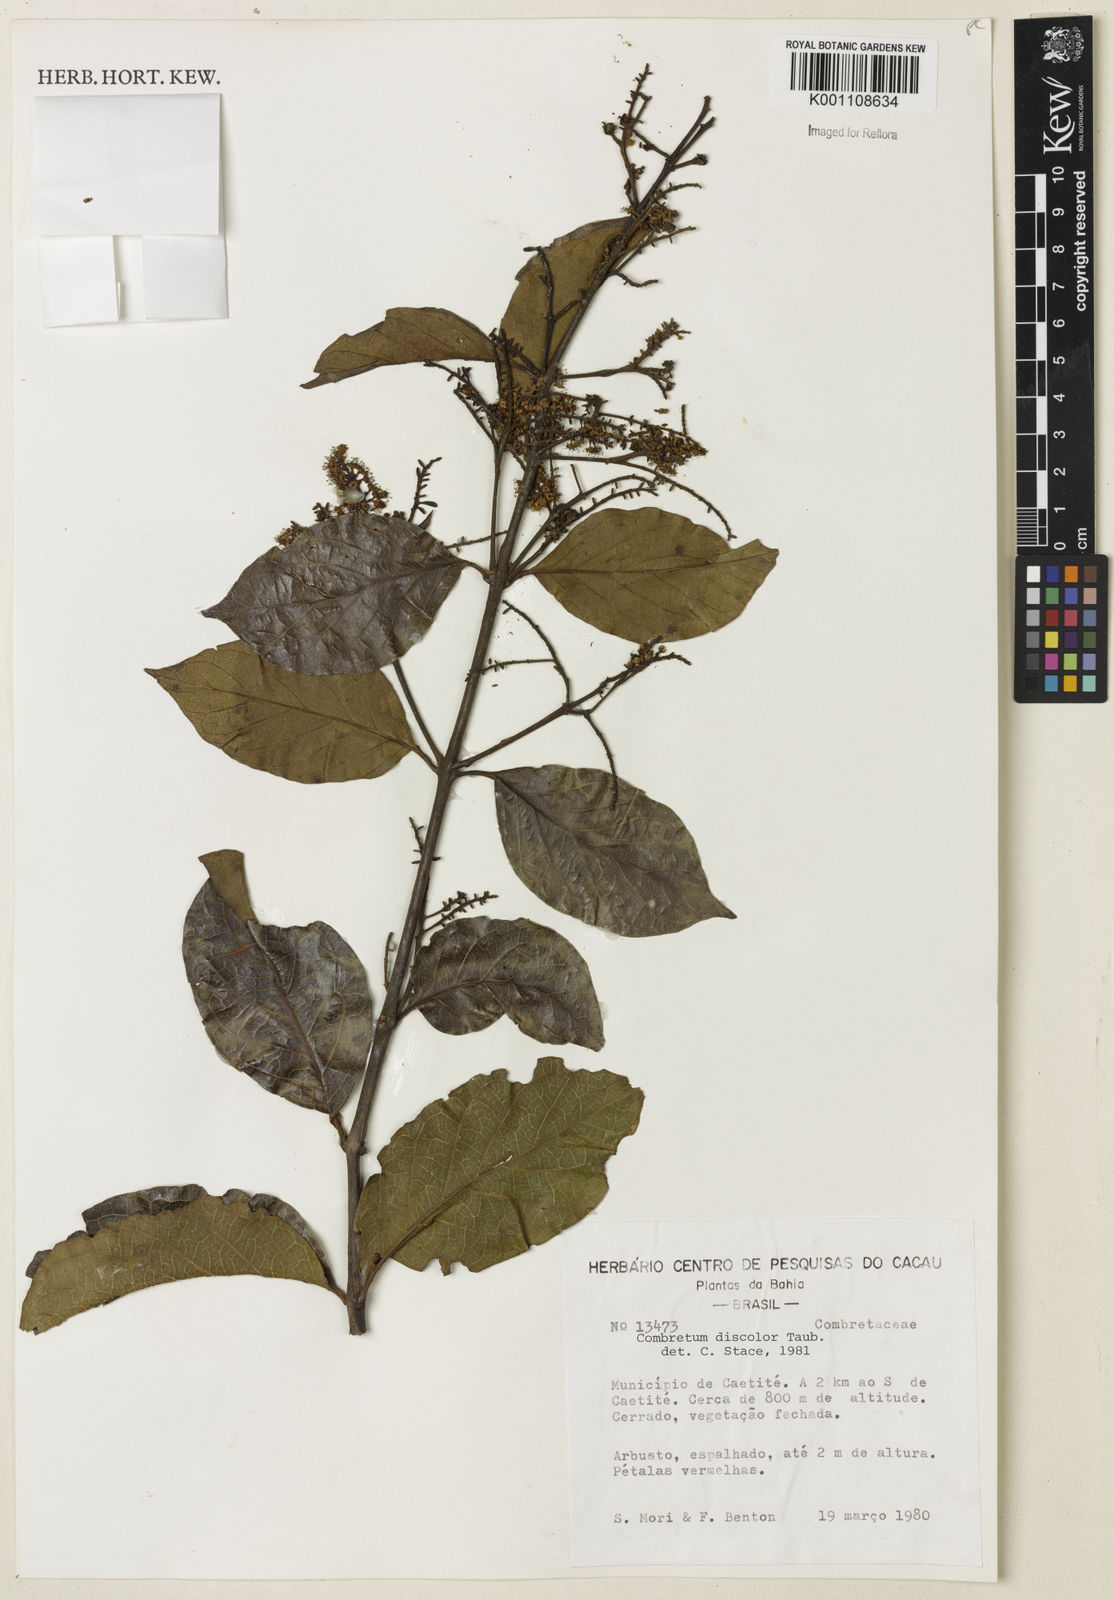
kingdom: Plantae
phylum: Tracheophyta
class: Magnoliopsida
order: Myrtales
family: Combretaceae
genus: Combretum
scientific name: Combretum discolor
